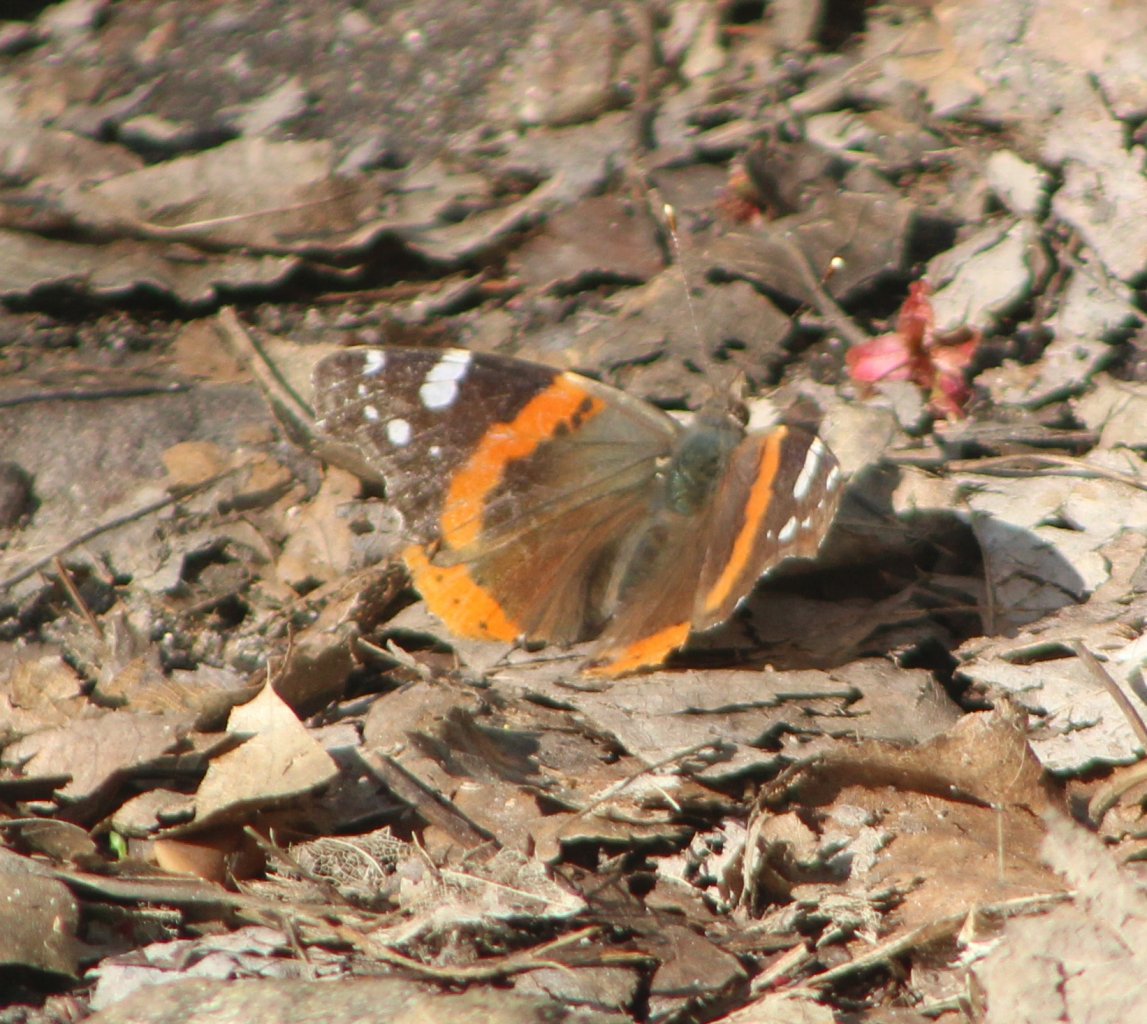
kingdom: Animalia
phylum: Arthropoda
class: Insecta
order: Lepidoptera
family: Nymphalidae
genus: Vanessa
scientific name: Vanessa atalanta
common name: Red Admiral
